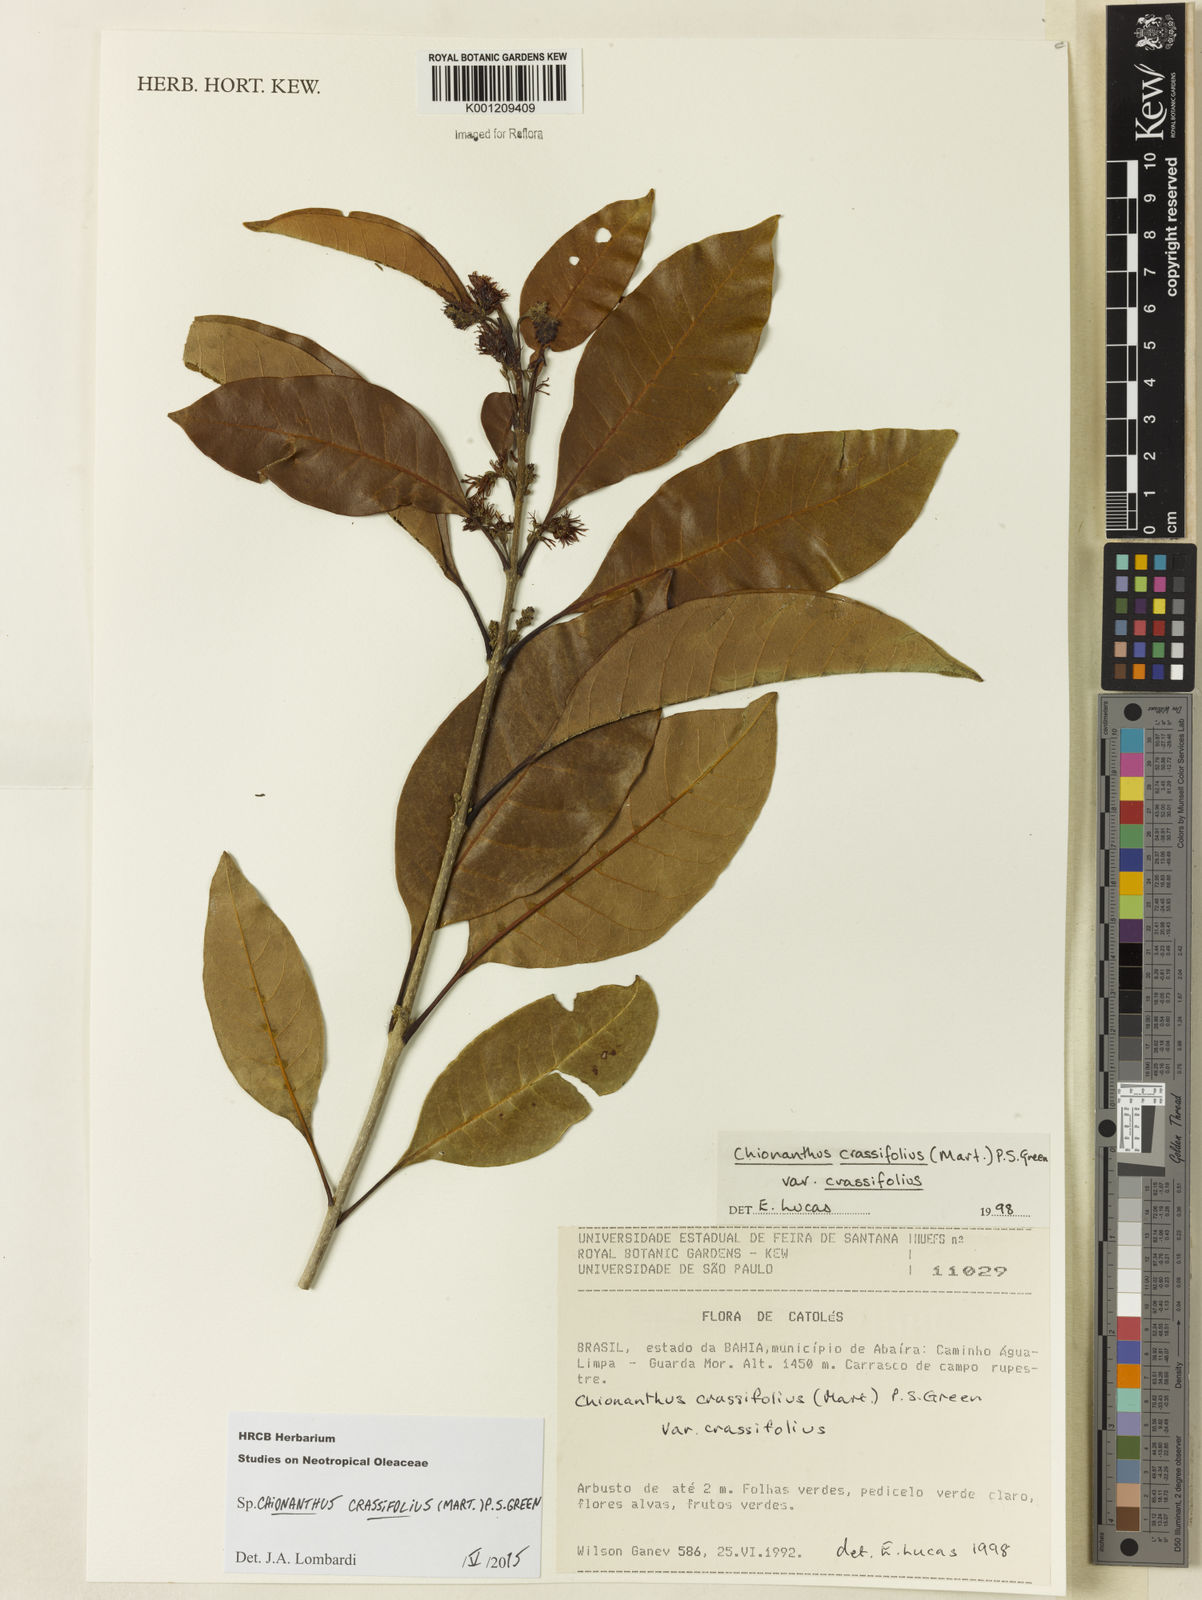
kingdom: Plantae
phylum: Tracheophyta
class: Magnoliopsida
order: Lamiales
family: Oleaceae
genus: Chionanthus
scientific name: Chionanthus crassifolius
